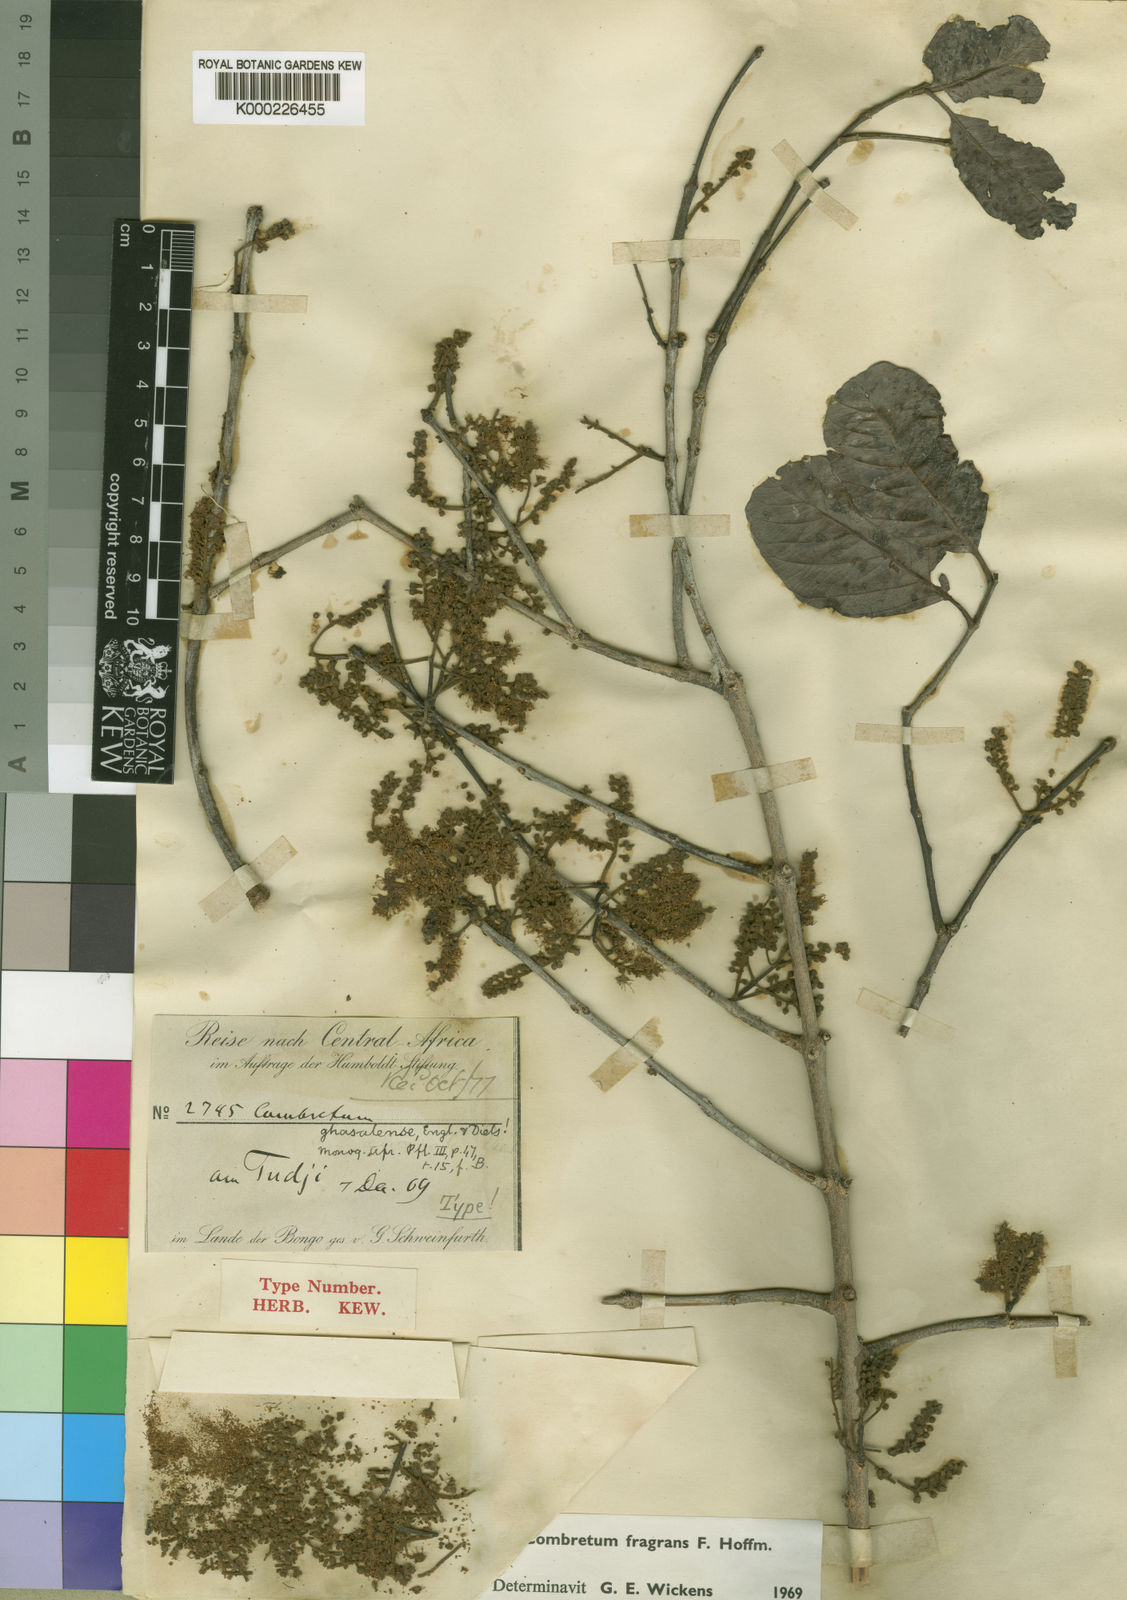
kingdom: Plantae
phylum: Tracheophyta
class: Magnoliopsida
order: Myrtales
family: Combretaceae
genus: Combretum
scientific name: Combretum adenogonium
